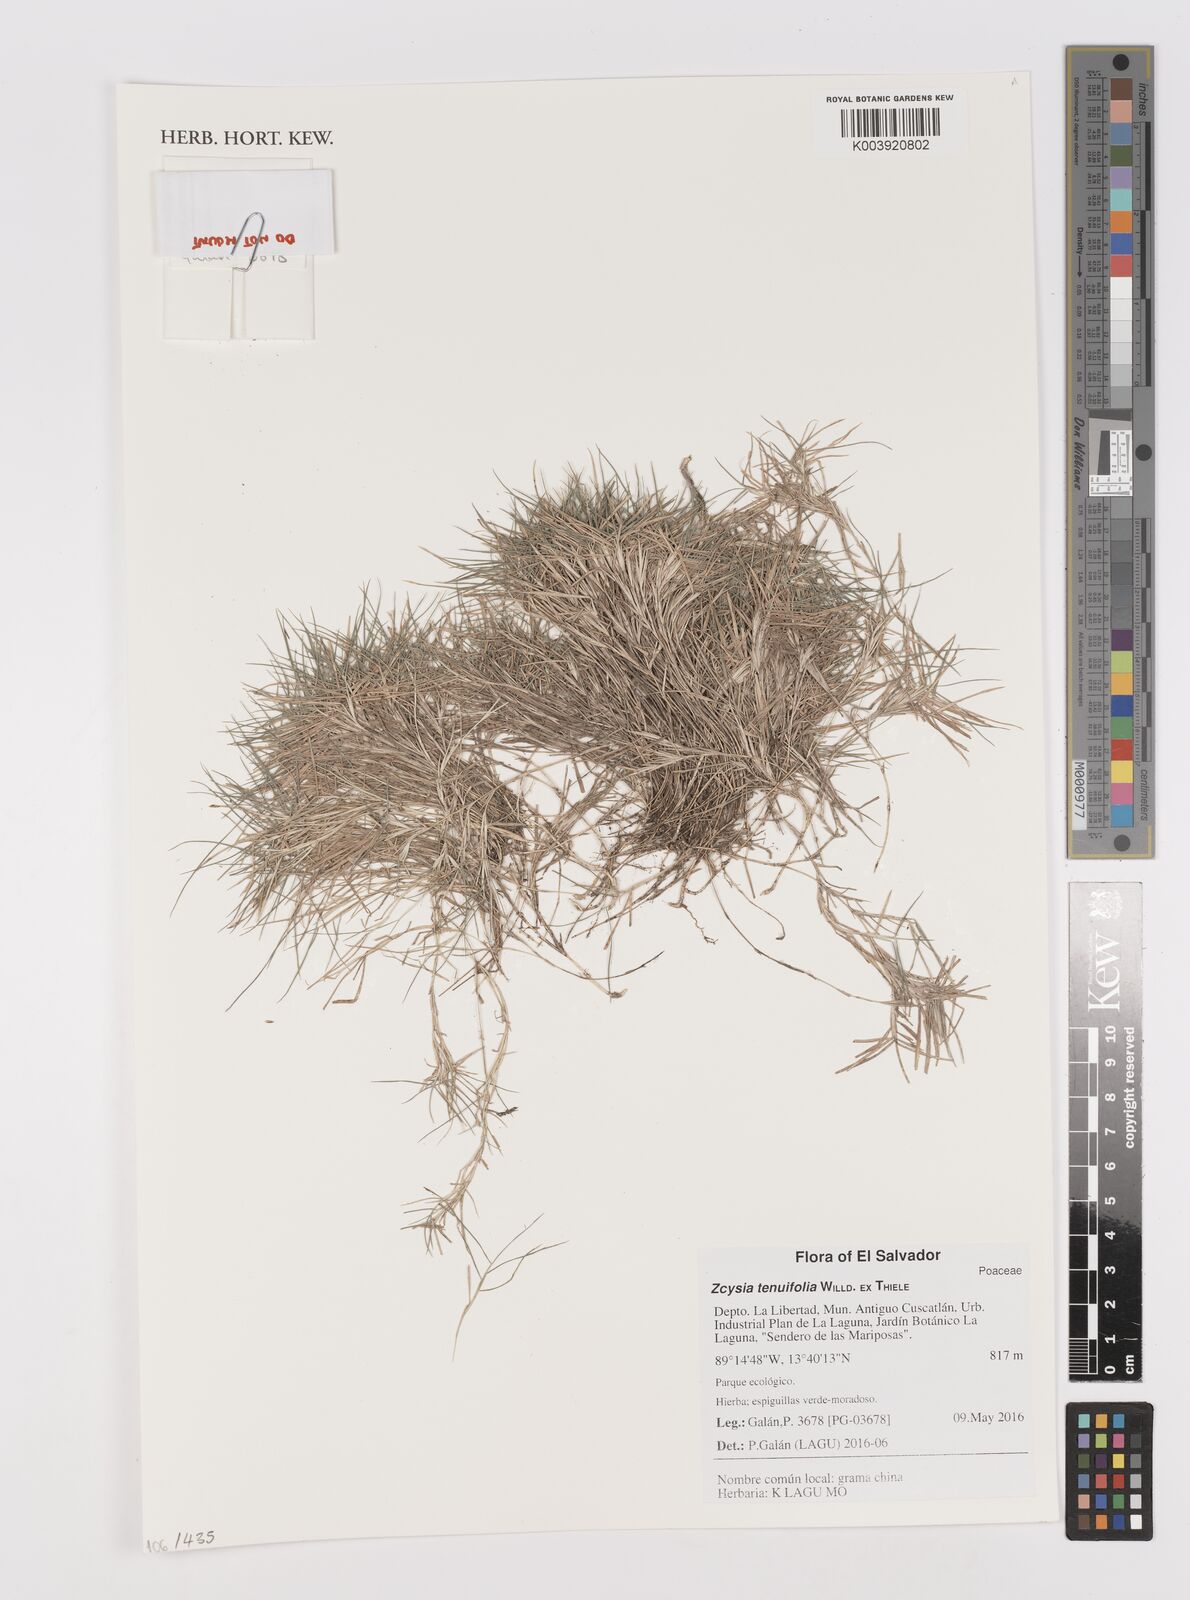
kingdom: Plantae
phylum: Tracheophyta
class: Liliopsida
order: Poales
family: Poaceae
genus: Zoysia
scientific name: Zoysia matrella
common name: Manila grass
